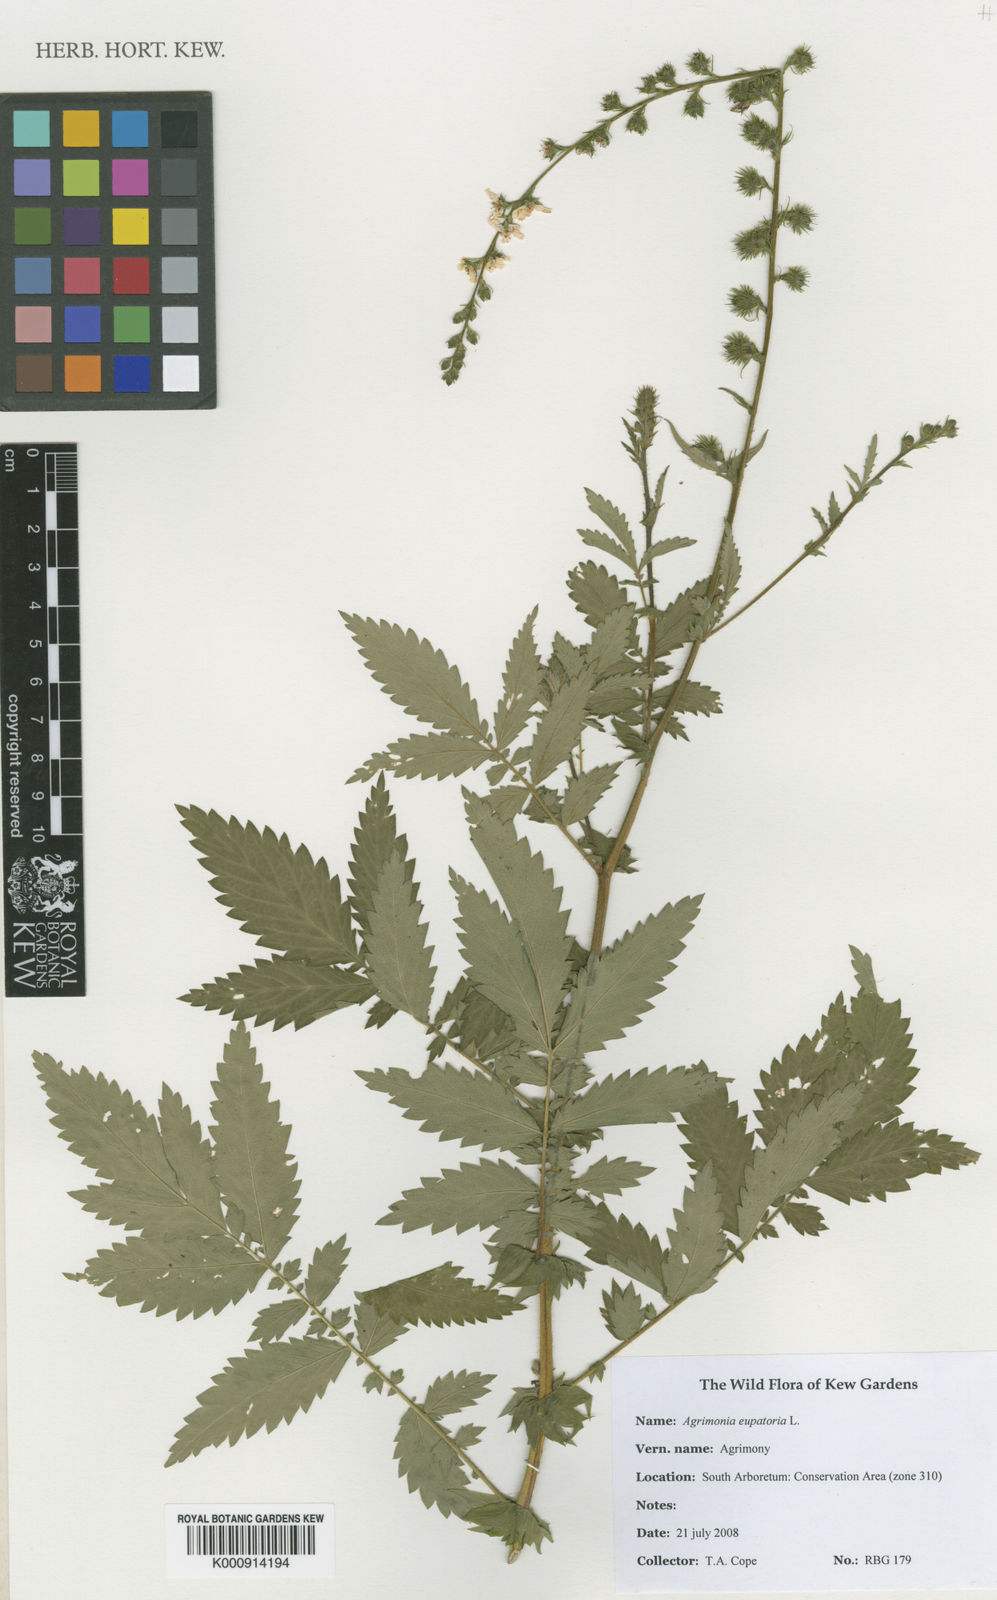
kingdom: Plantae
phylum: Tracheophyta
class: Magnoliopsida
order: Rosales
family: Rosaceae
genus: Agrimonia
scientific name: Agrimonia eupatoria
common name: Agrimony
